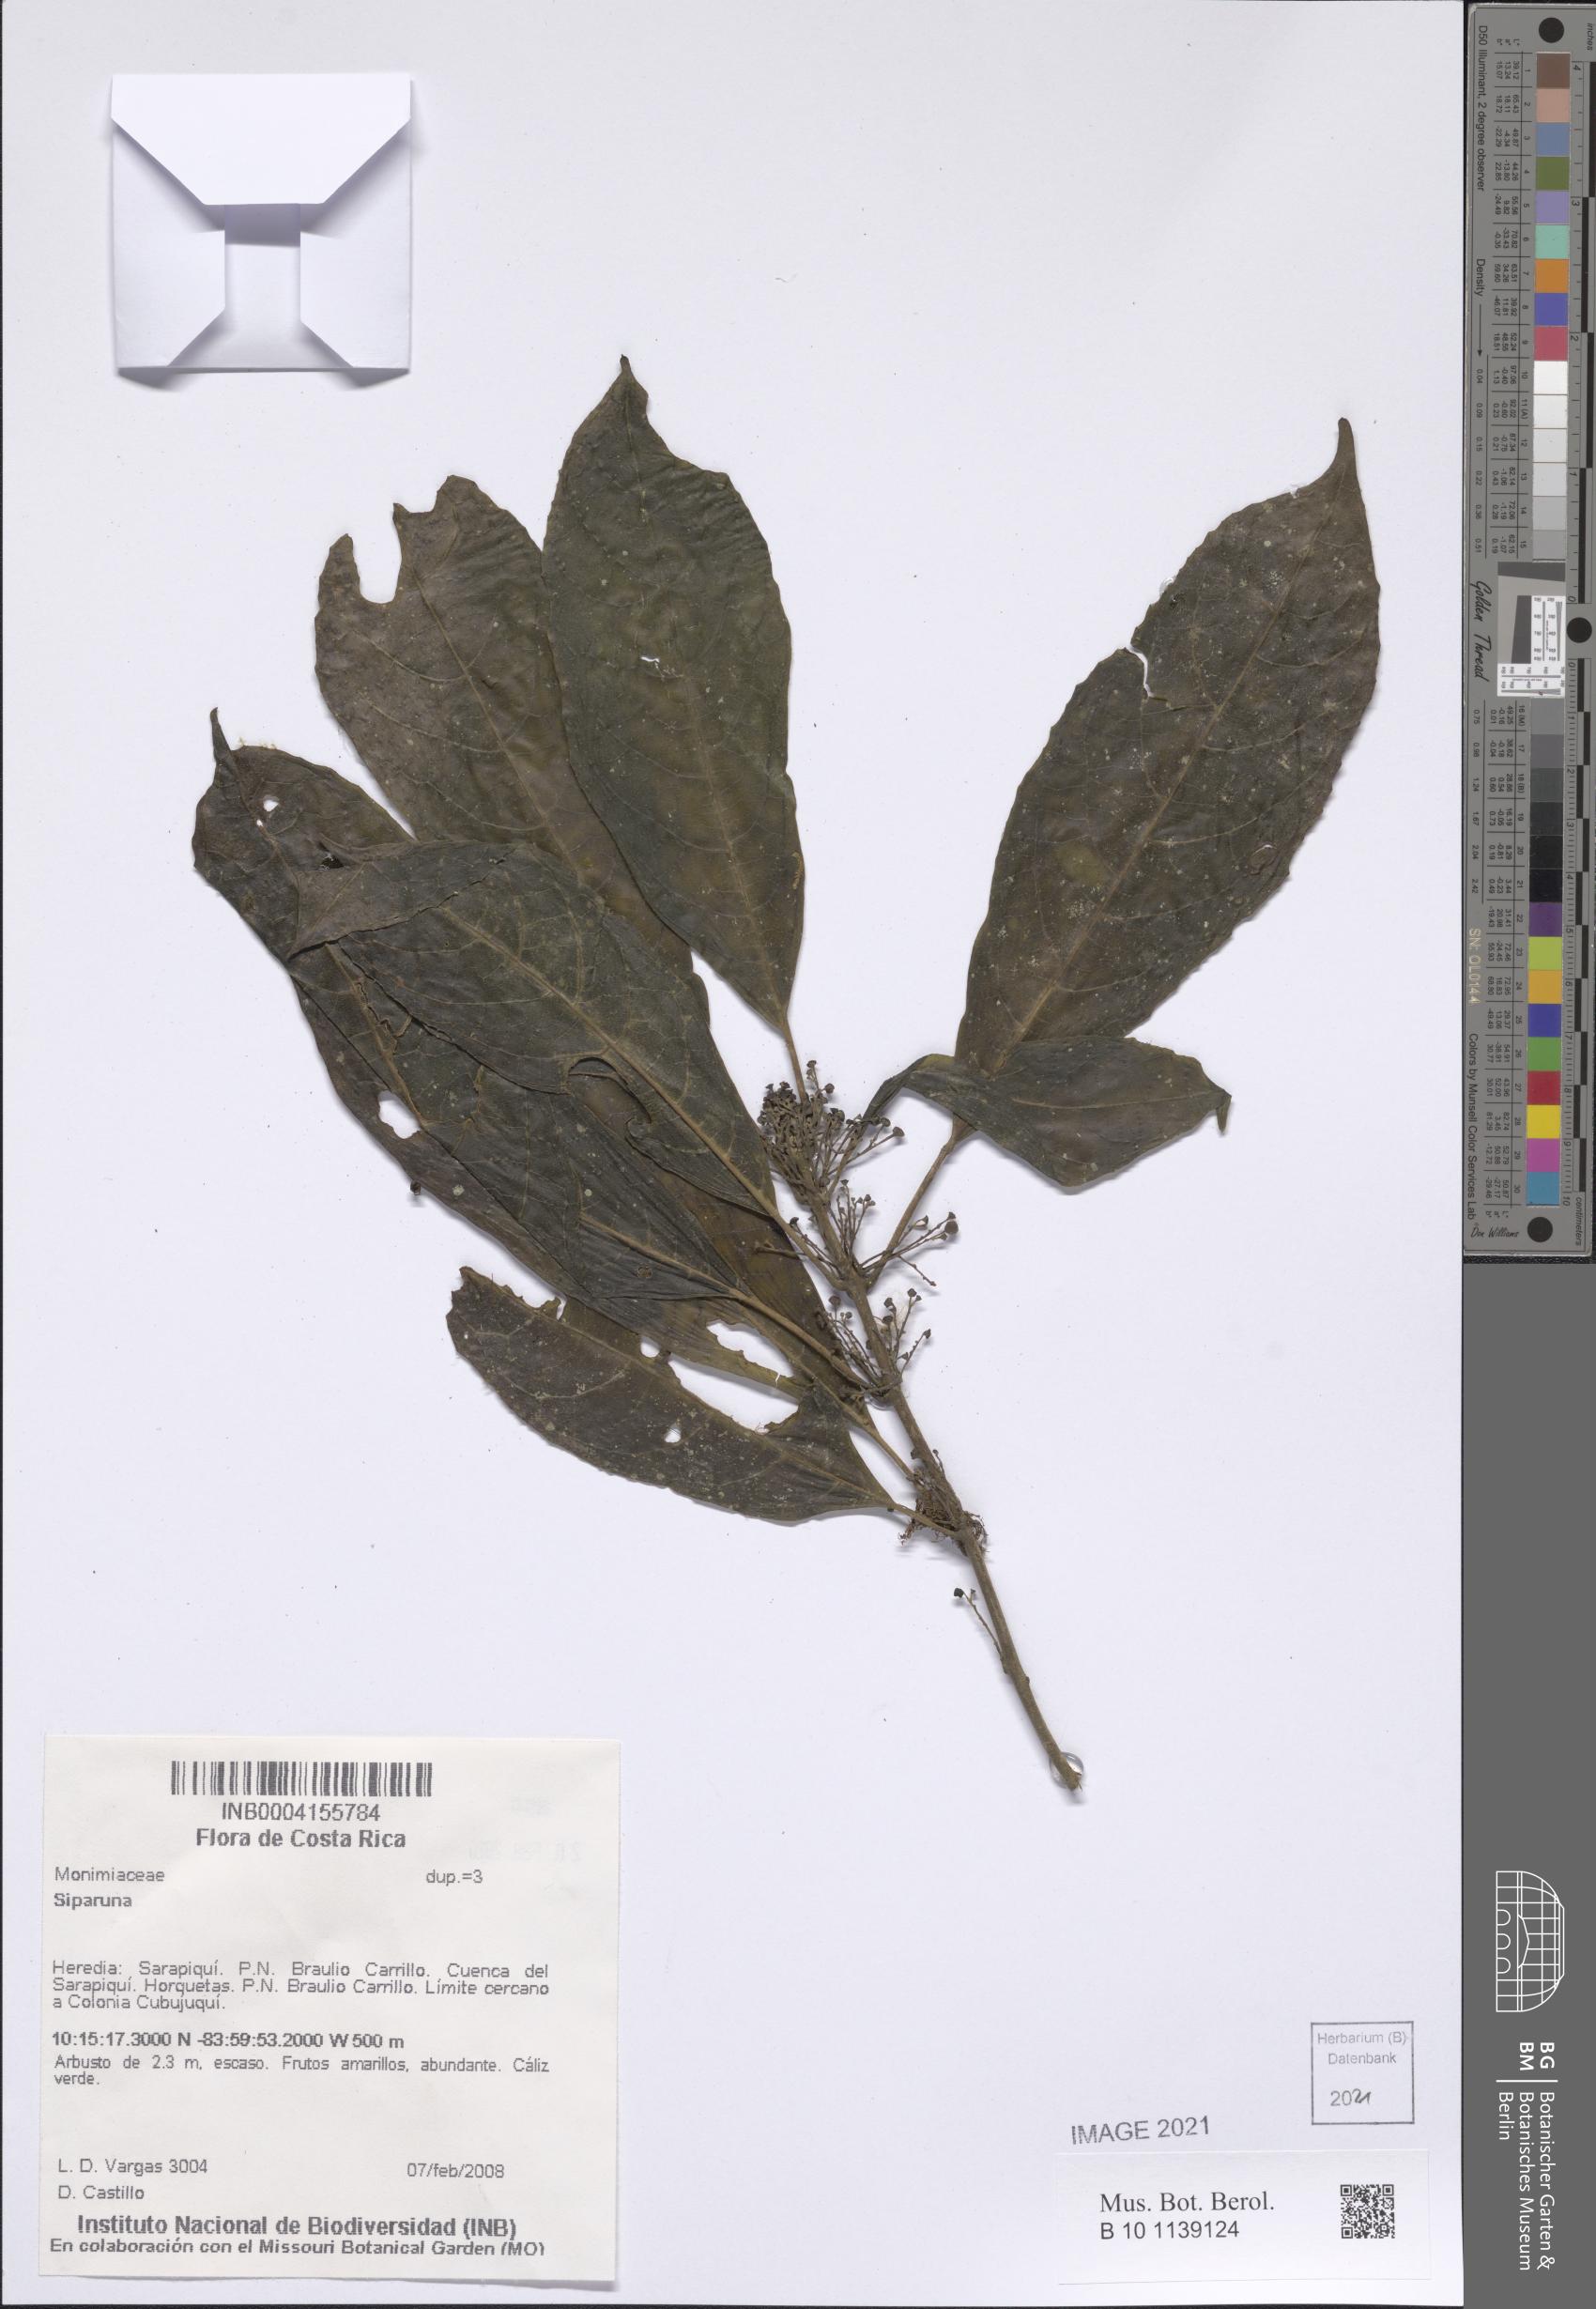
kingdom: Plantae
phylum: Tracheophyta
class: Magnoliopsida
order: Laurales
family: Siparunaceae
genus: Siparuna
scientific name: Siparuna
